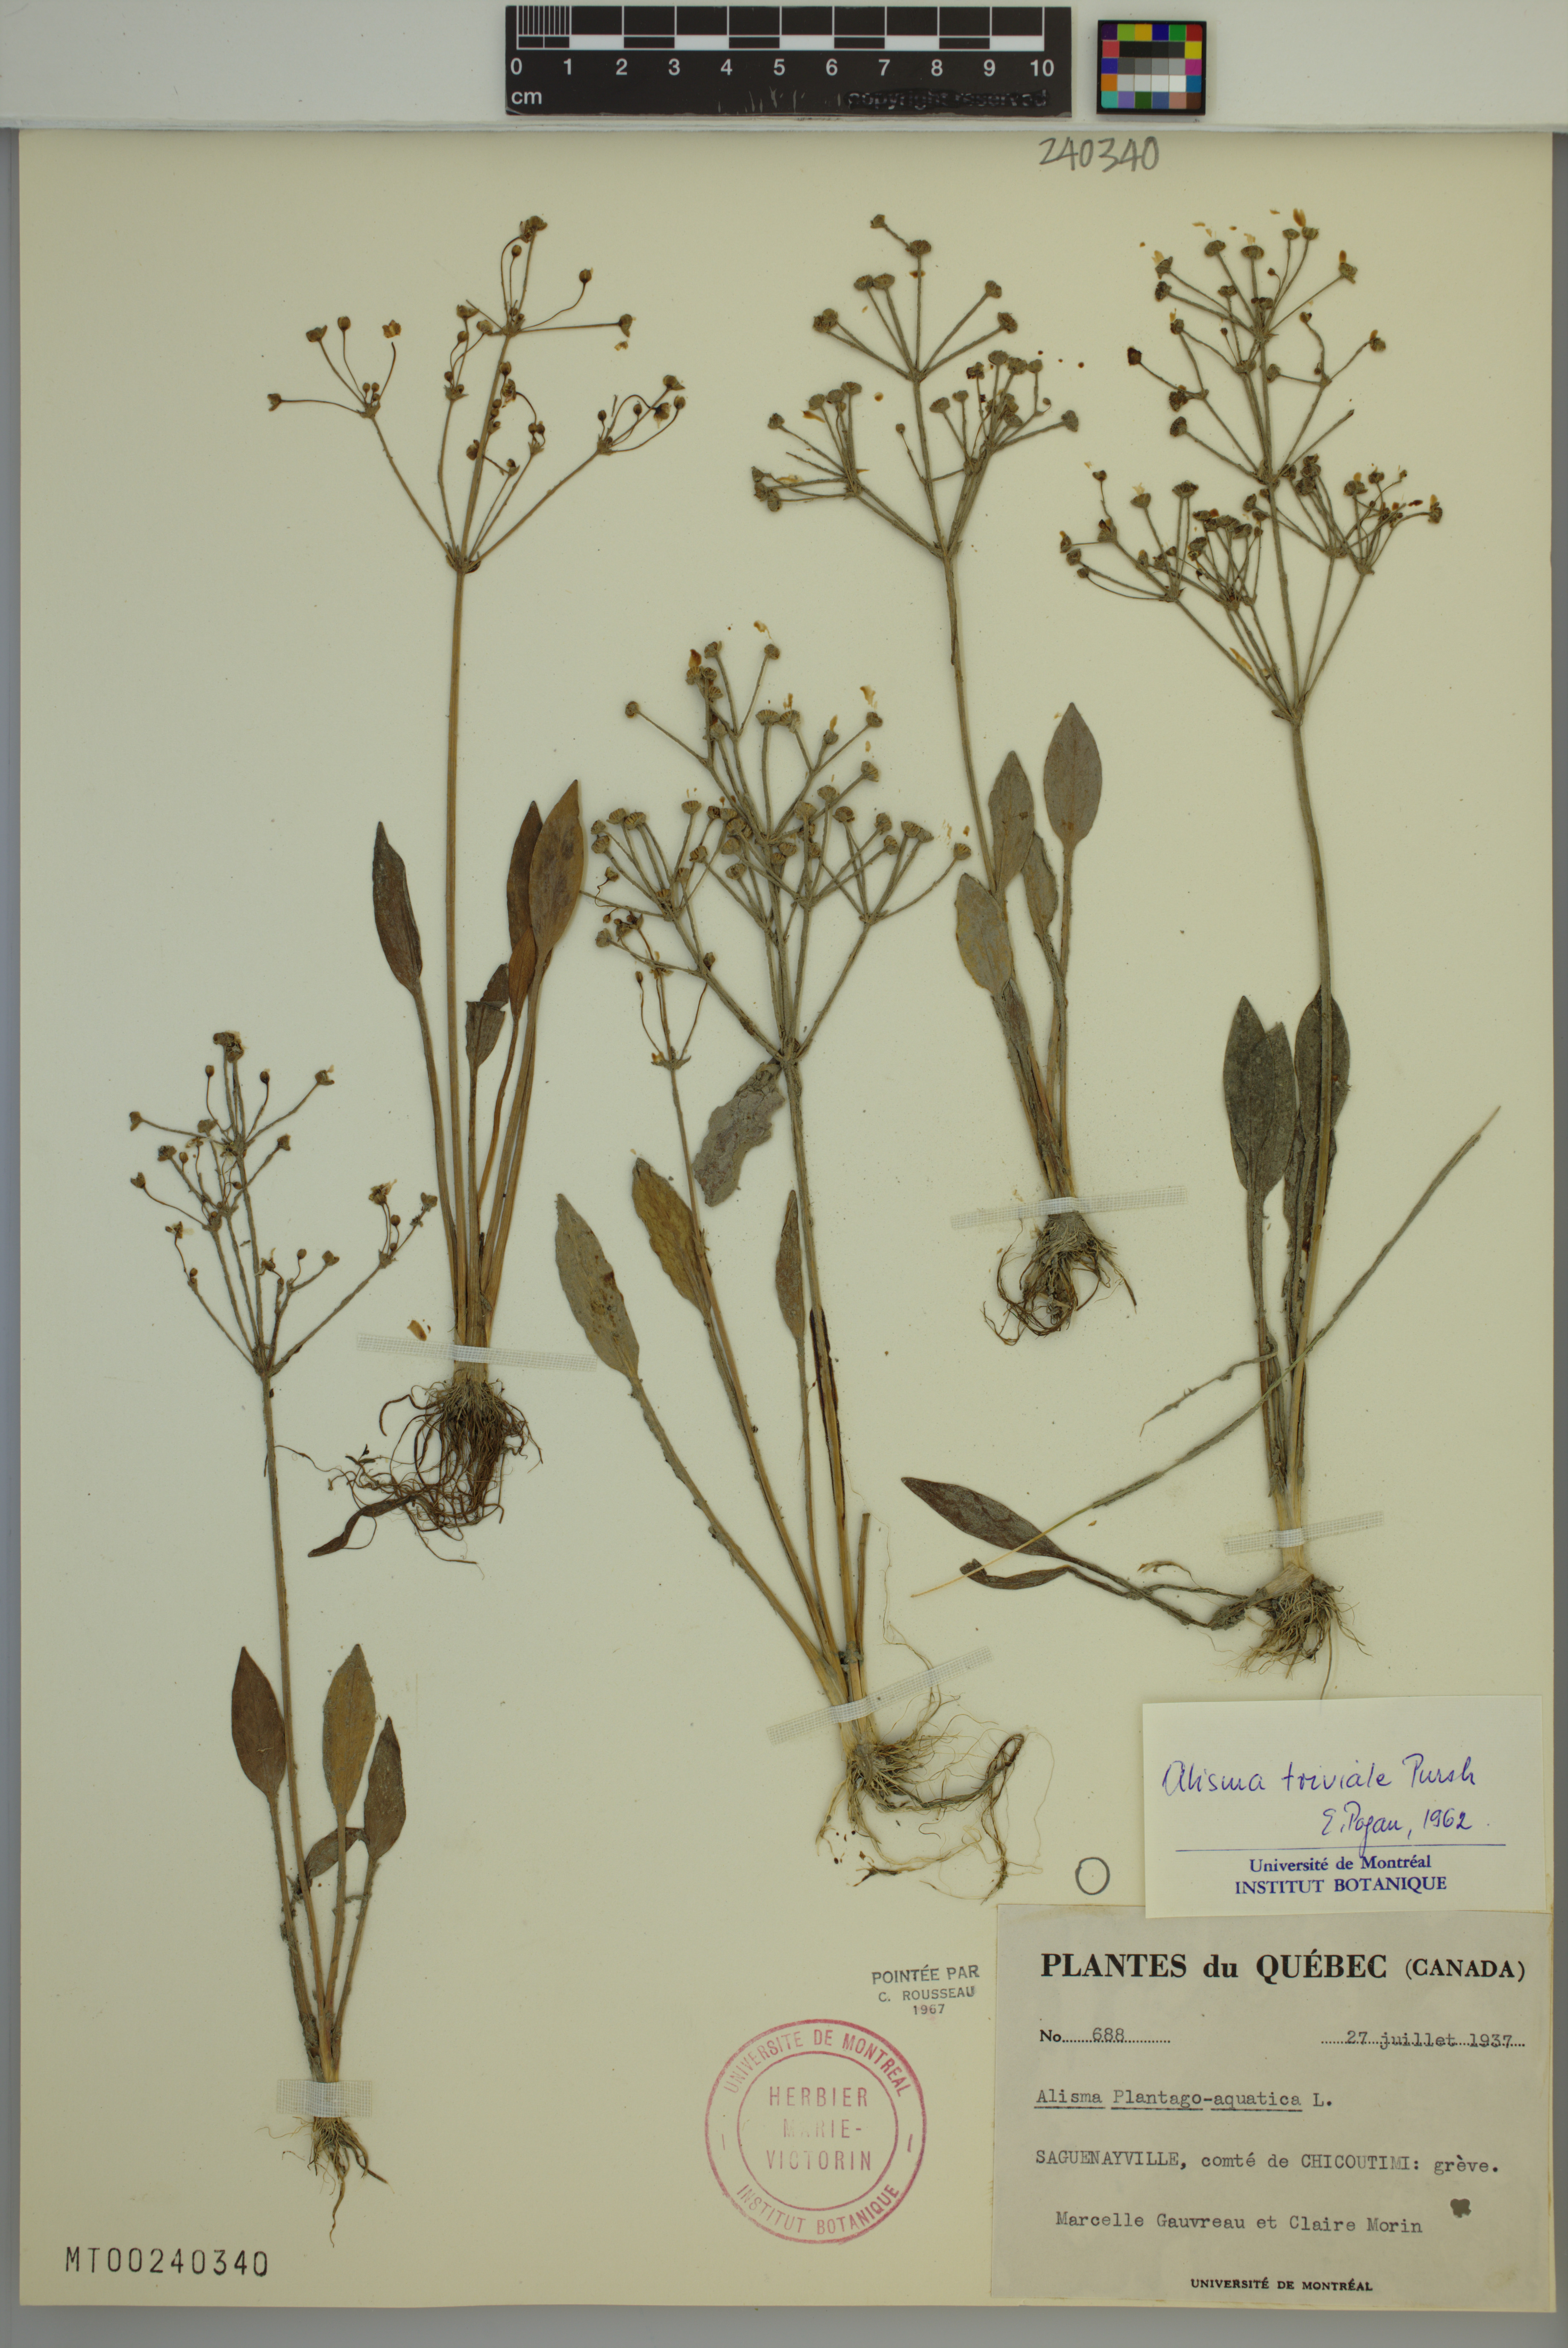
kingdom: Plantae
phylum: Tracheophyta
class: Liliopsida
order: Alismatales
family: Alismataceae
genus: Alisma
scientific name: Alisma triviale
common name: Northern water-plantain
